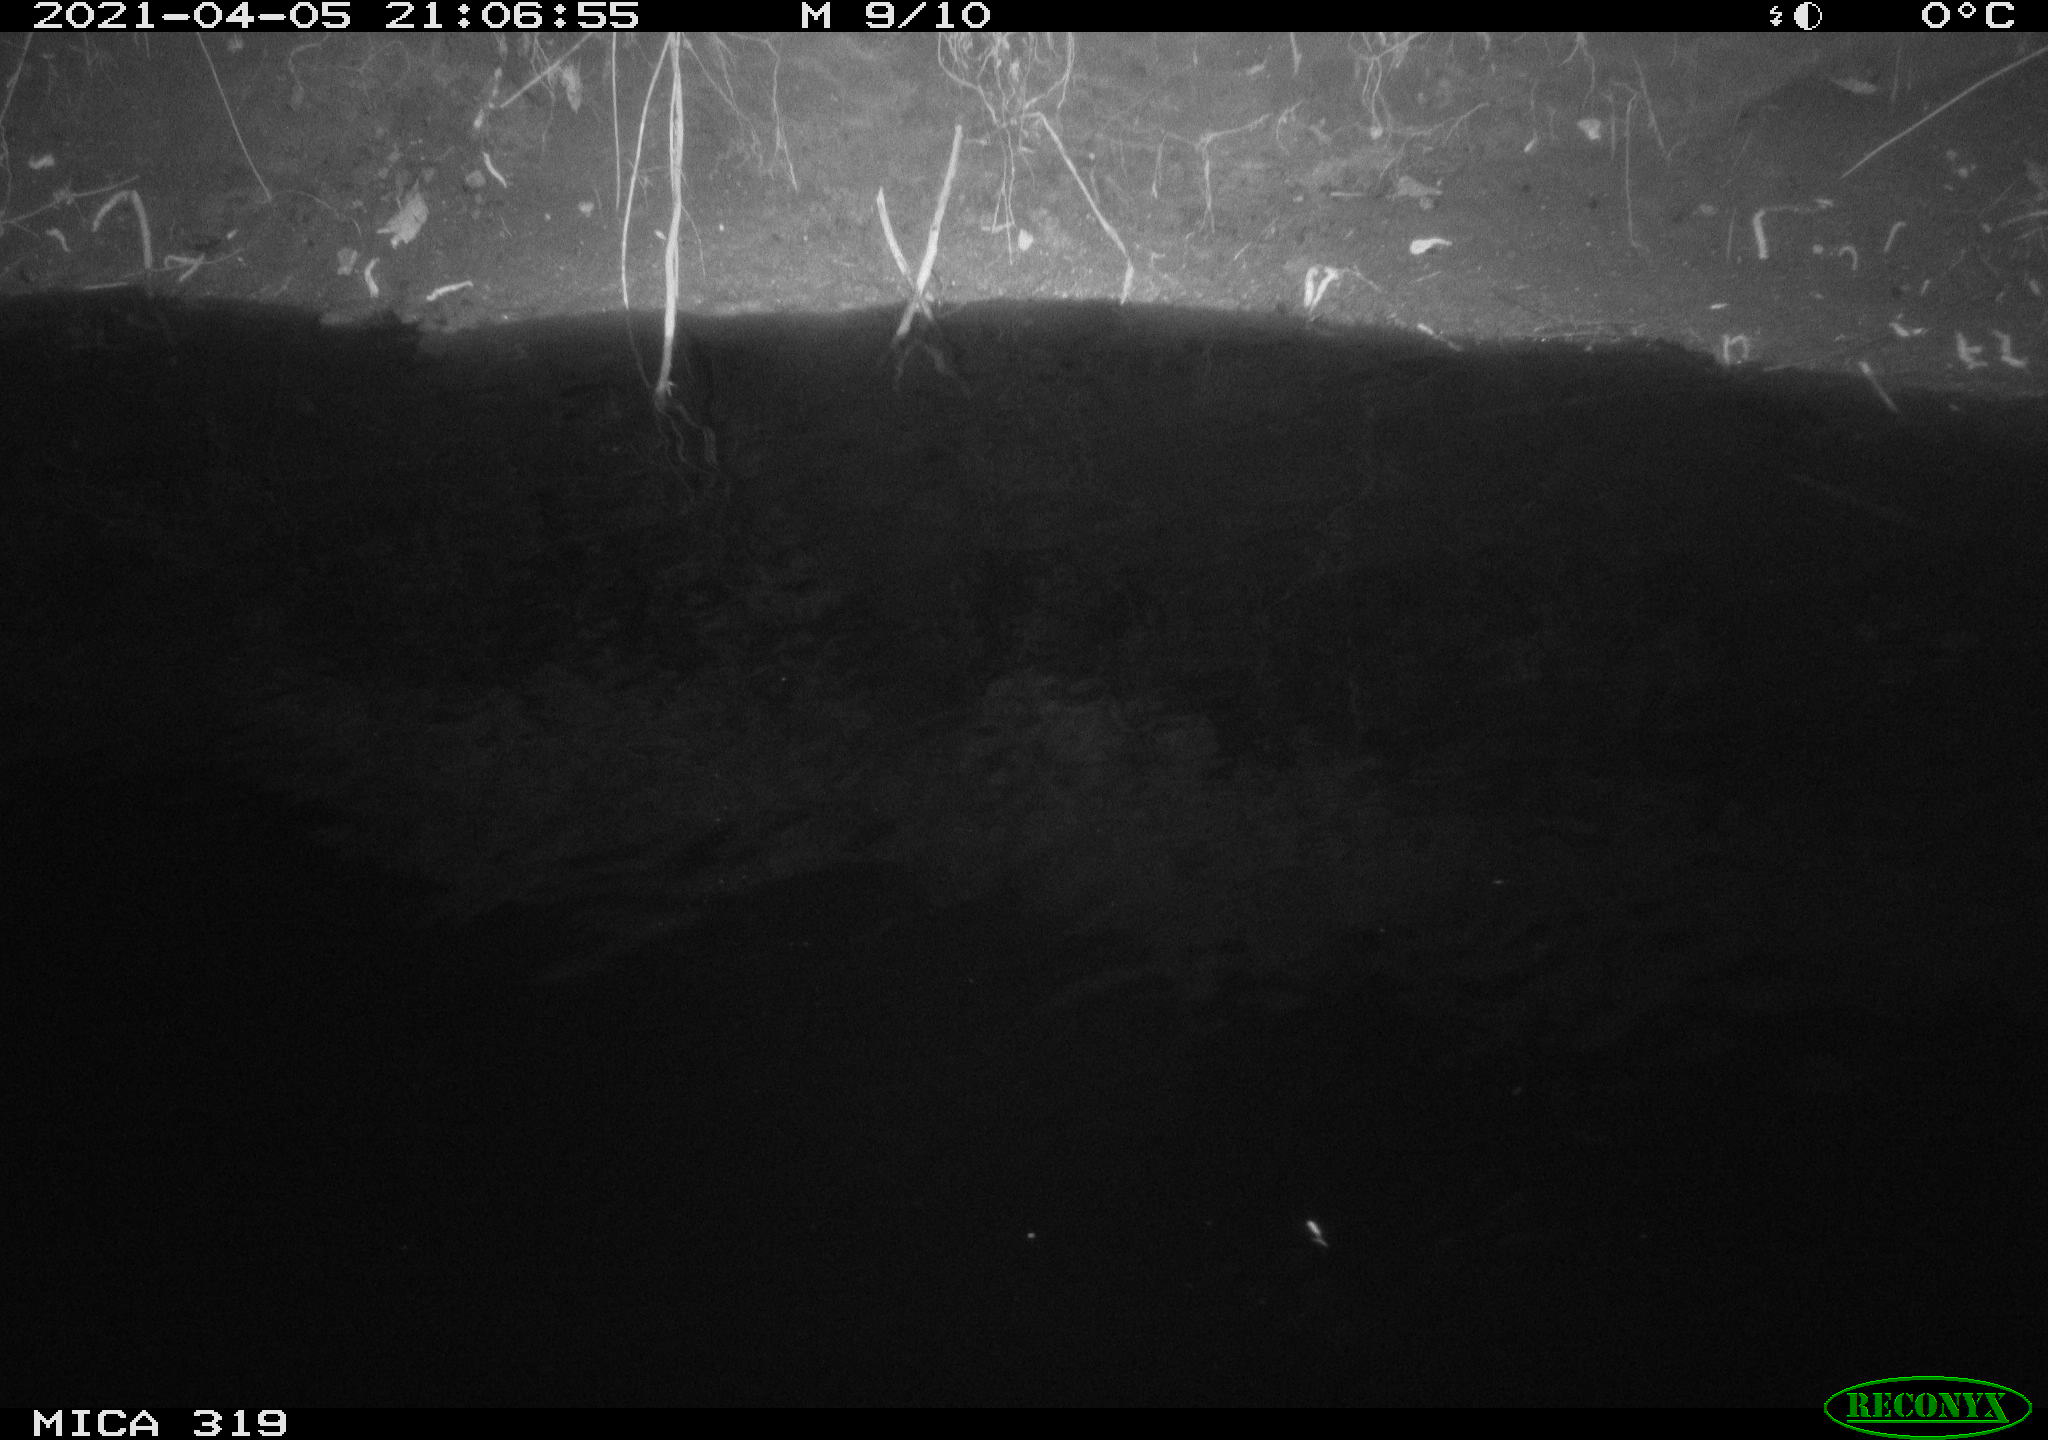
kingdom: Animalia
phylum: Chordata
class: Mammalia
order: Rodentia
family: Muridae
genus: Rattus
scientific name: Rattus norvegicus
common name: Brown rat
